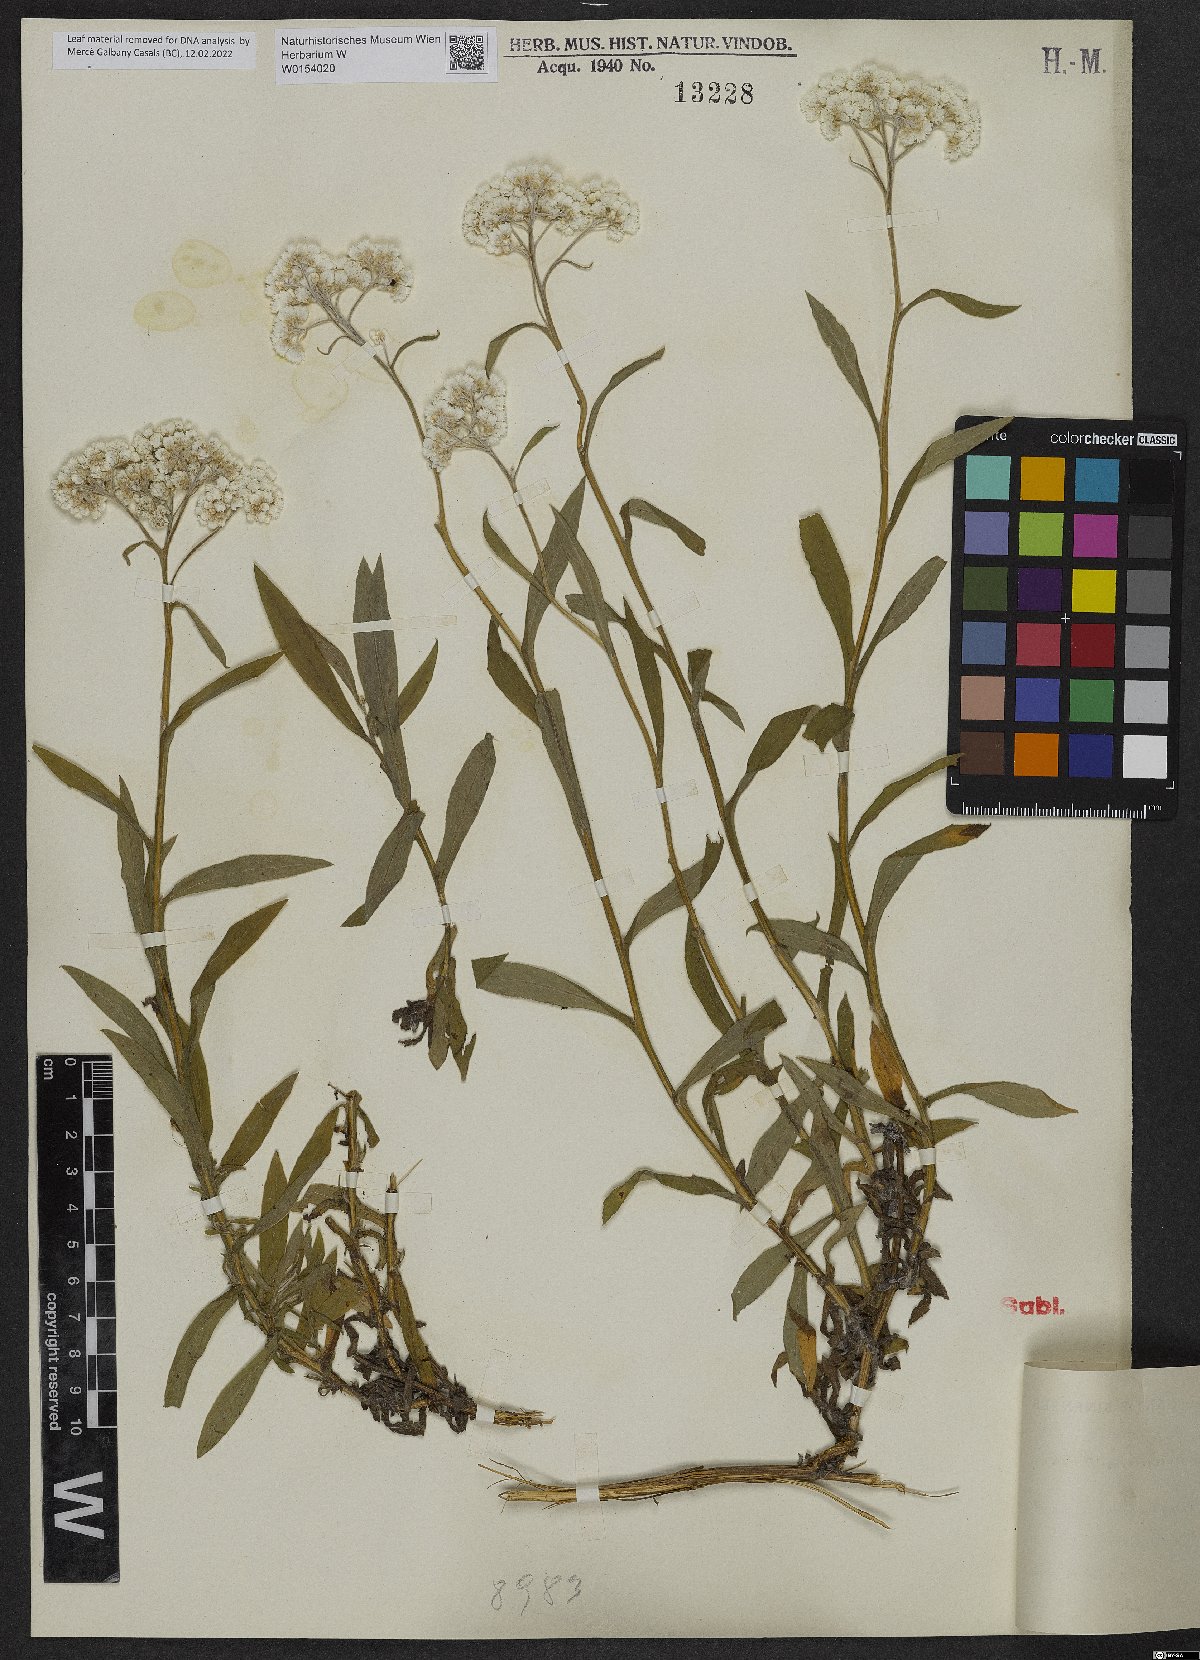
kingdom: Plantae
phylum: Tracheophyta
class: Magnoliopsida
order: Asterales
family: Asteraceae
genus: Anaphalis
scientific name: Anaphalis surculosa
